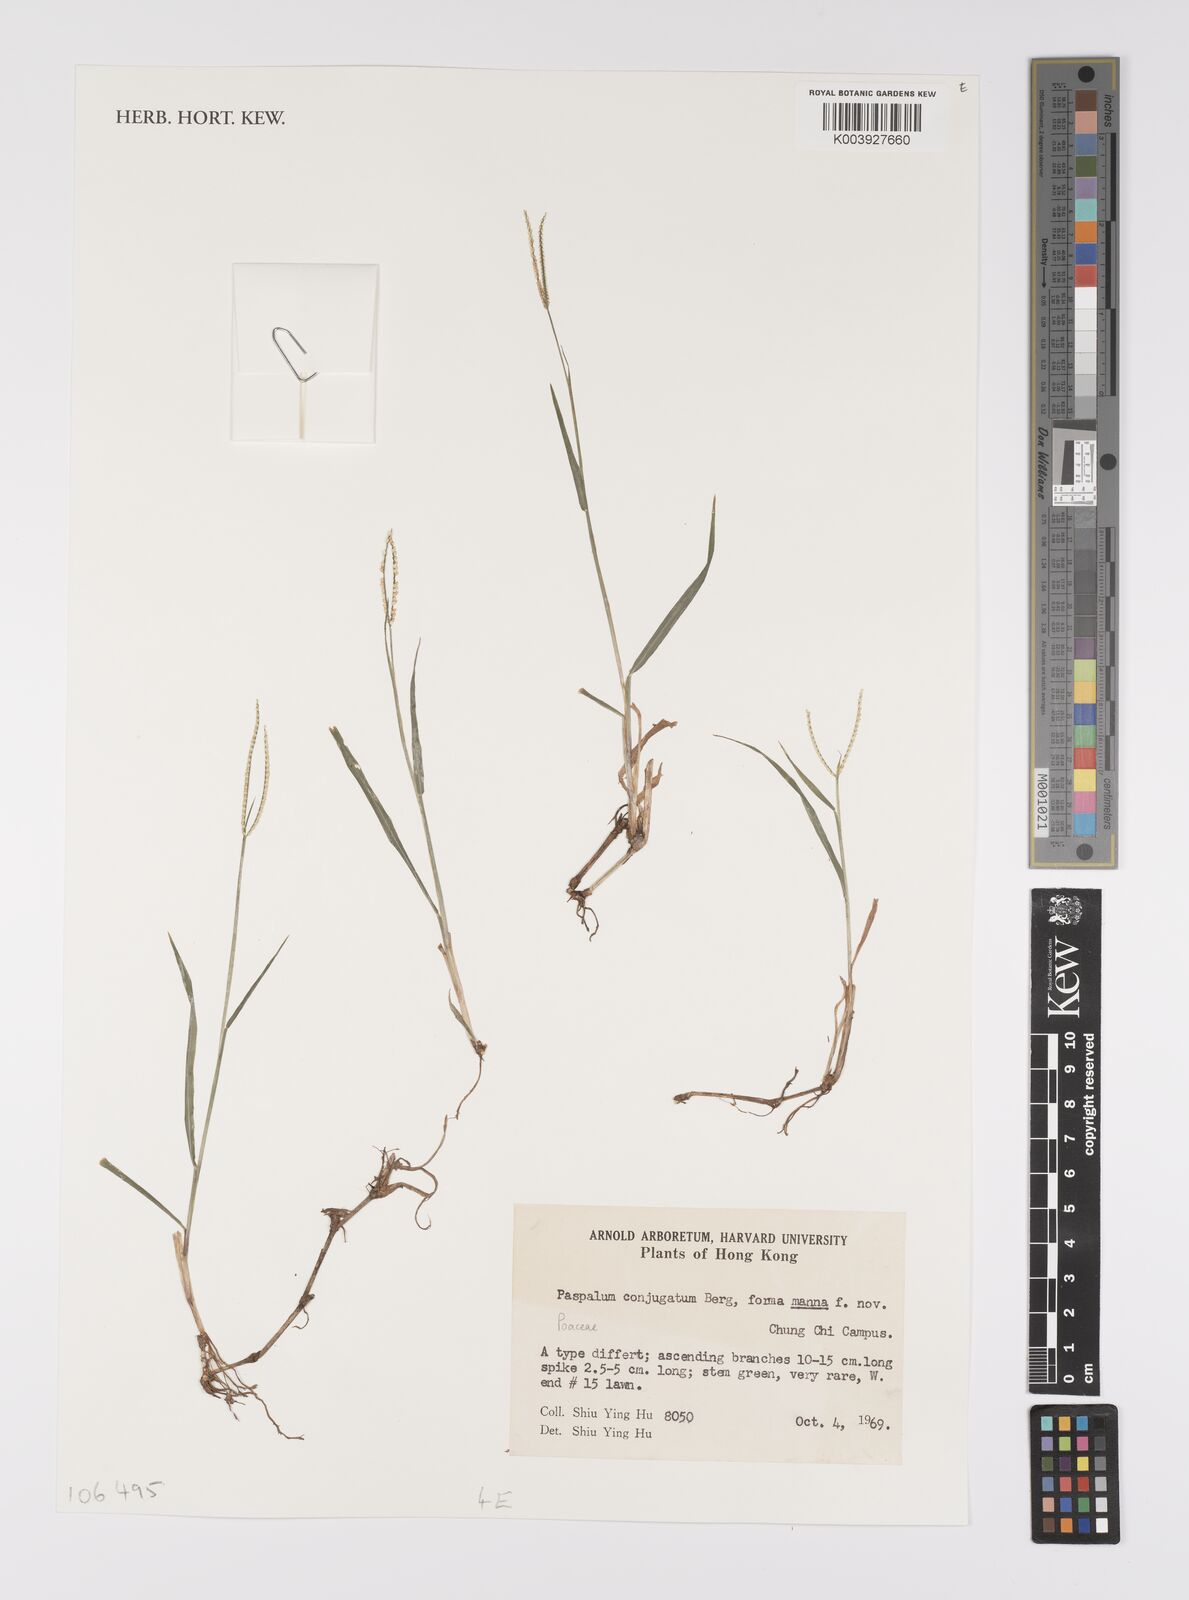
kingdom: Plantae
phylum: Tracheophyta
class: Liliopsida
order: Poales
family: Poaceae
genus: Paspalum
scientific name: Paspalum conjugatum
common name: Hilograss
